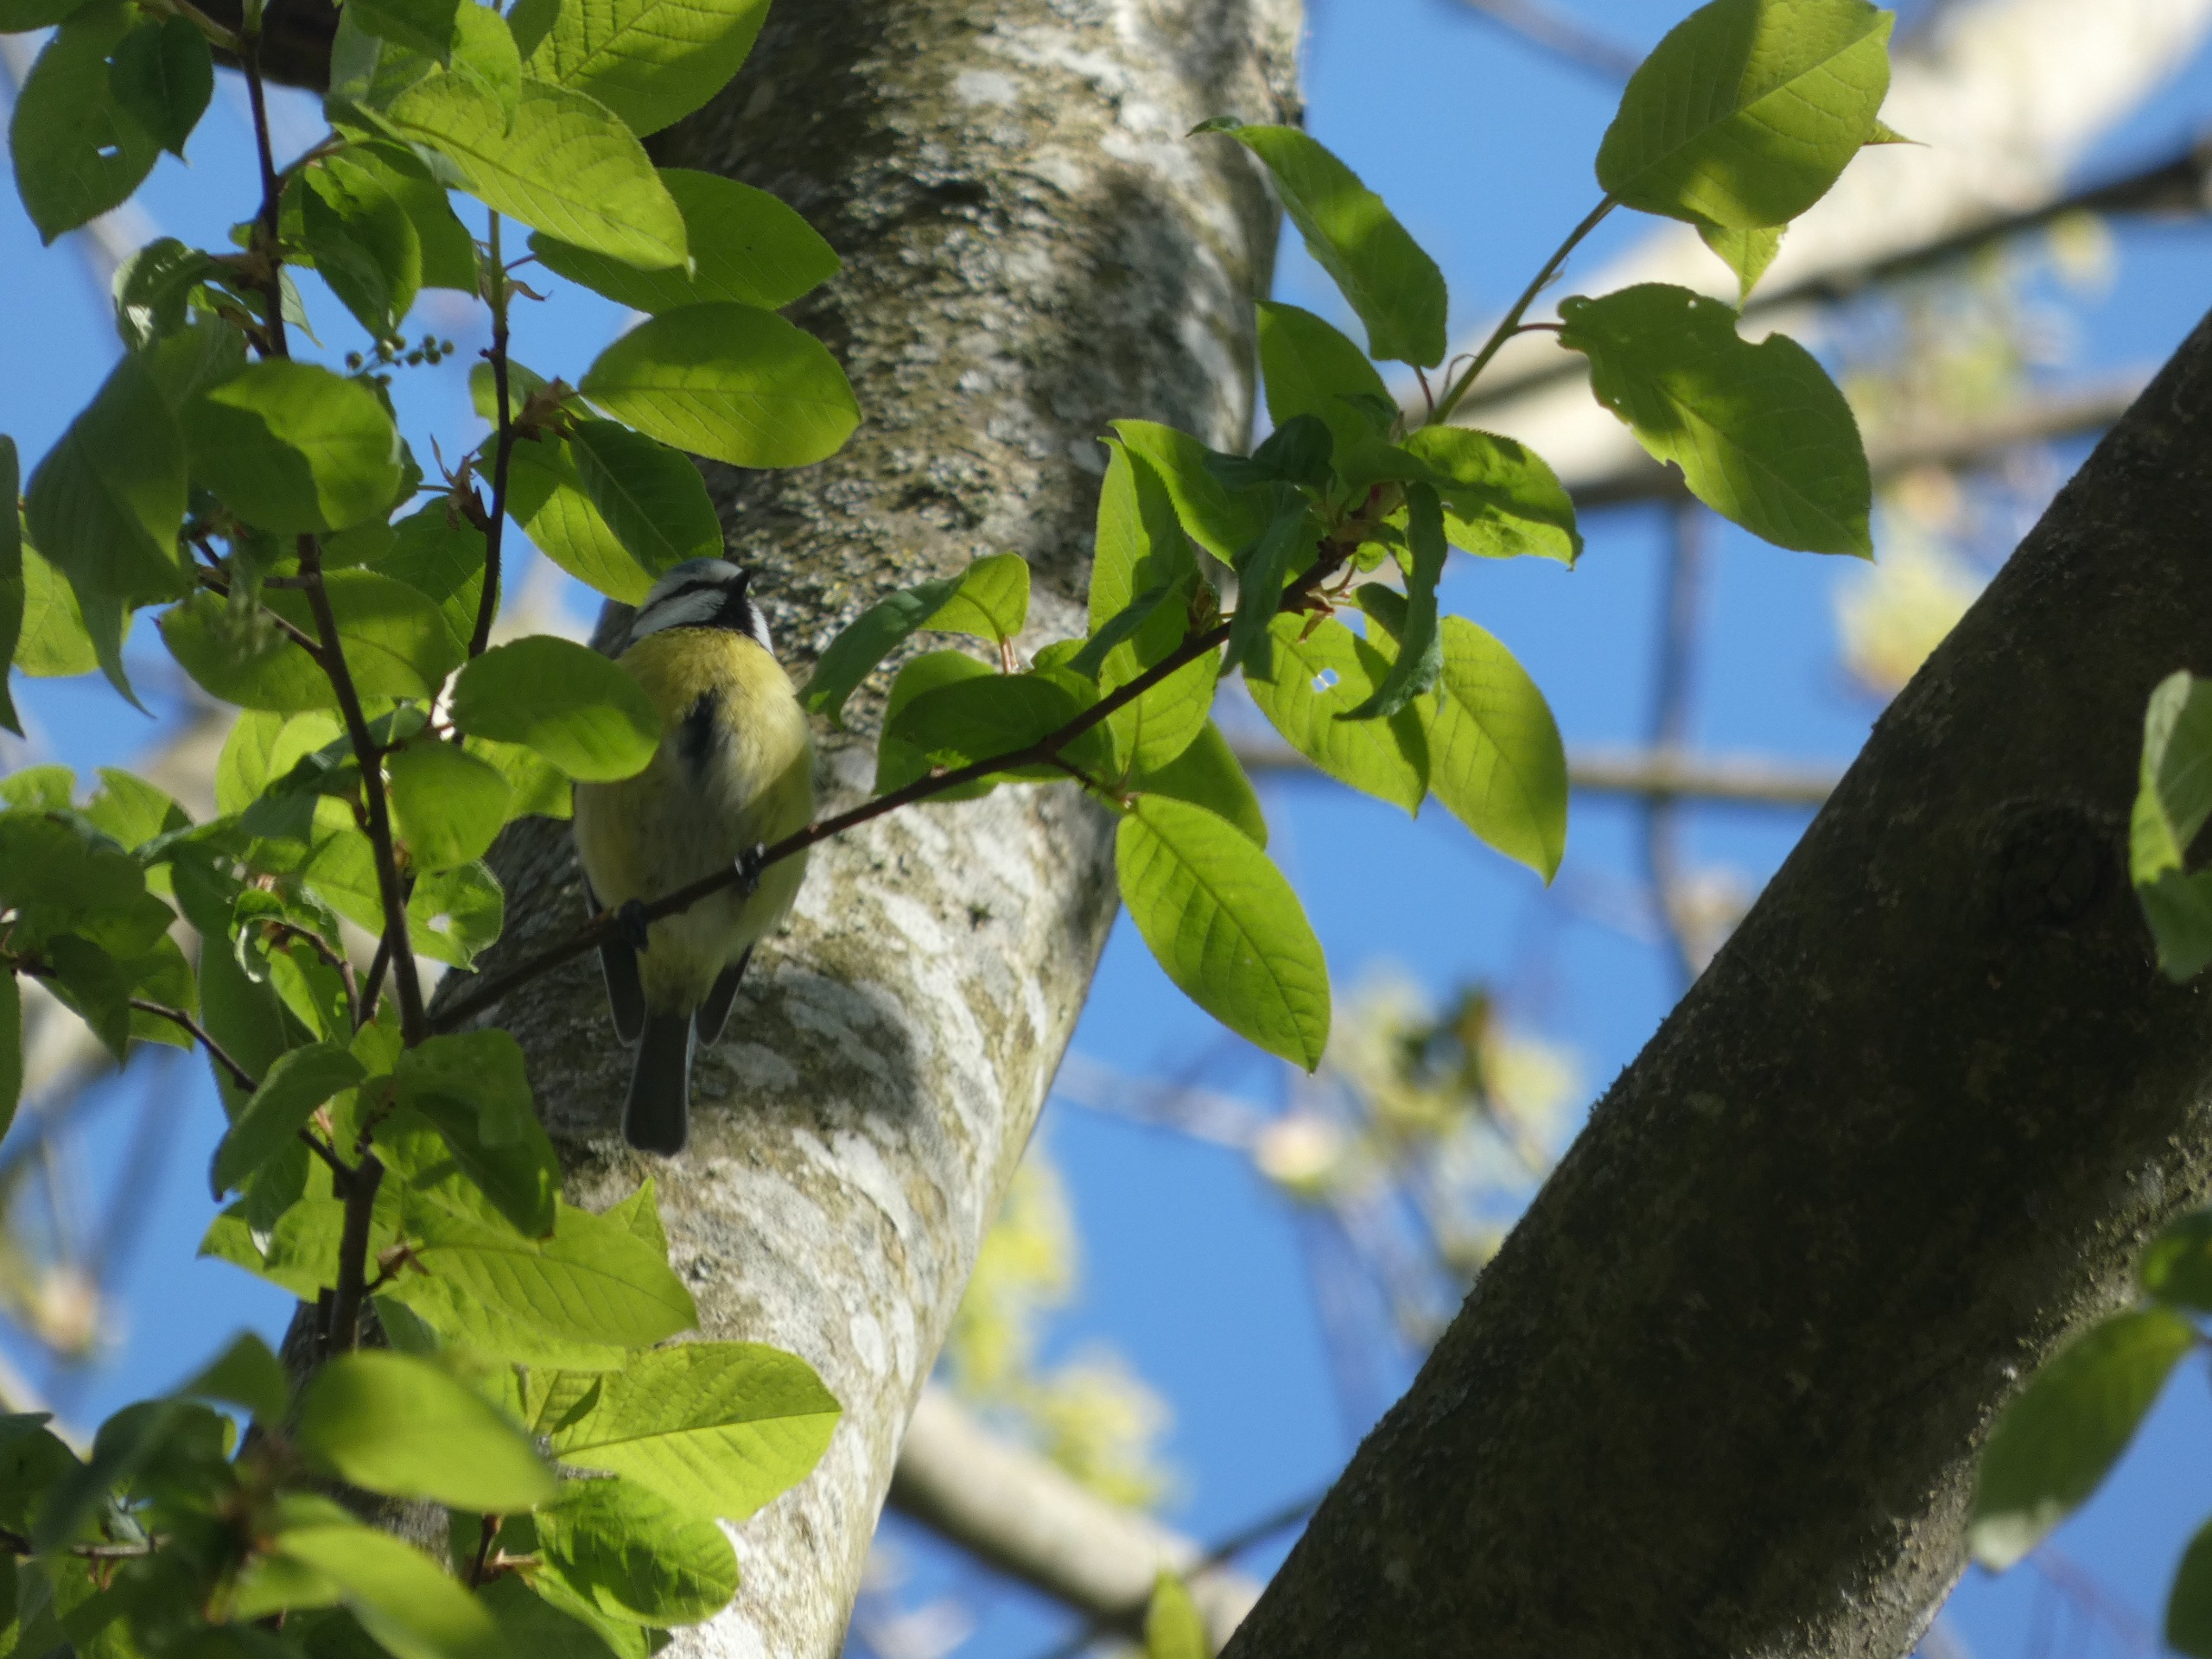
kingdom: Animalia
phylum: Chordata
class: Aves
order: Passeriformes
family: Paridae
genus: Cyanistes
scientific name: Cyanistes caeruleus
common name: Blåmejse
